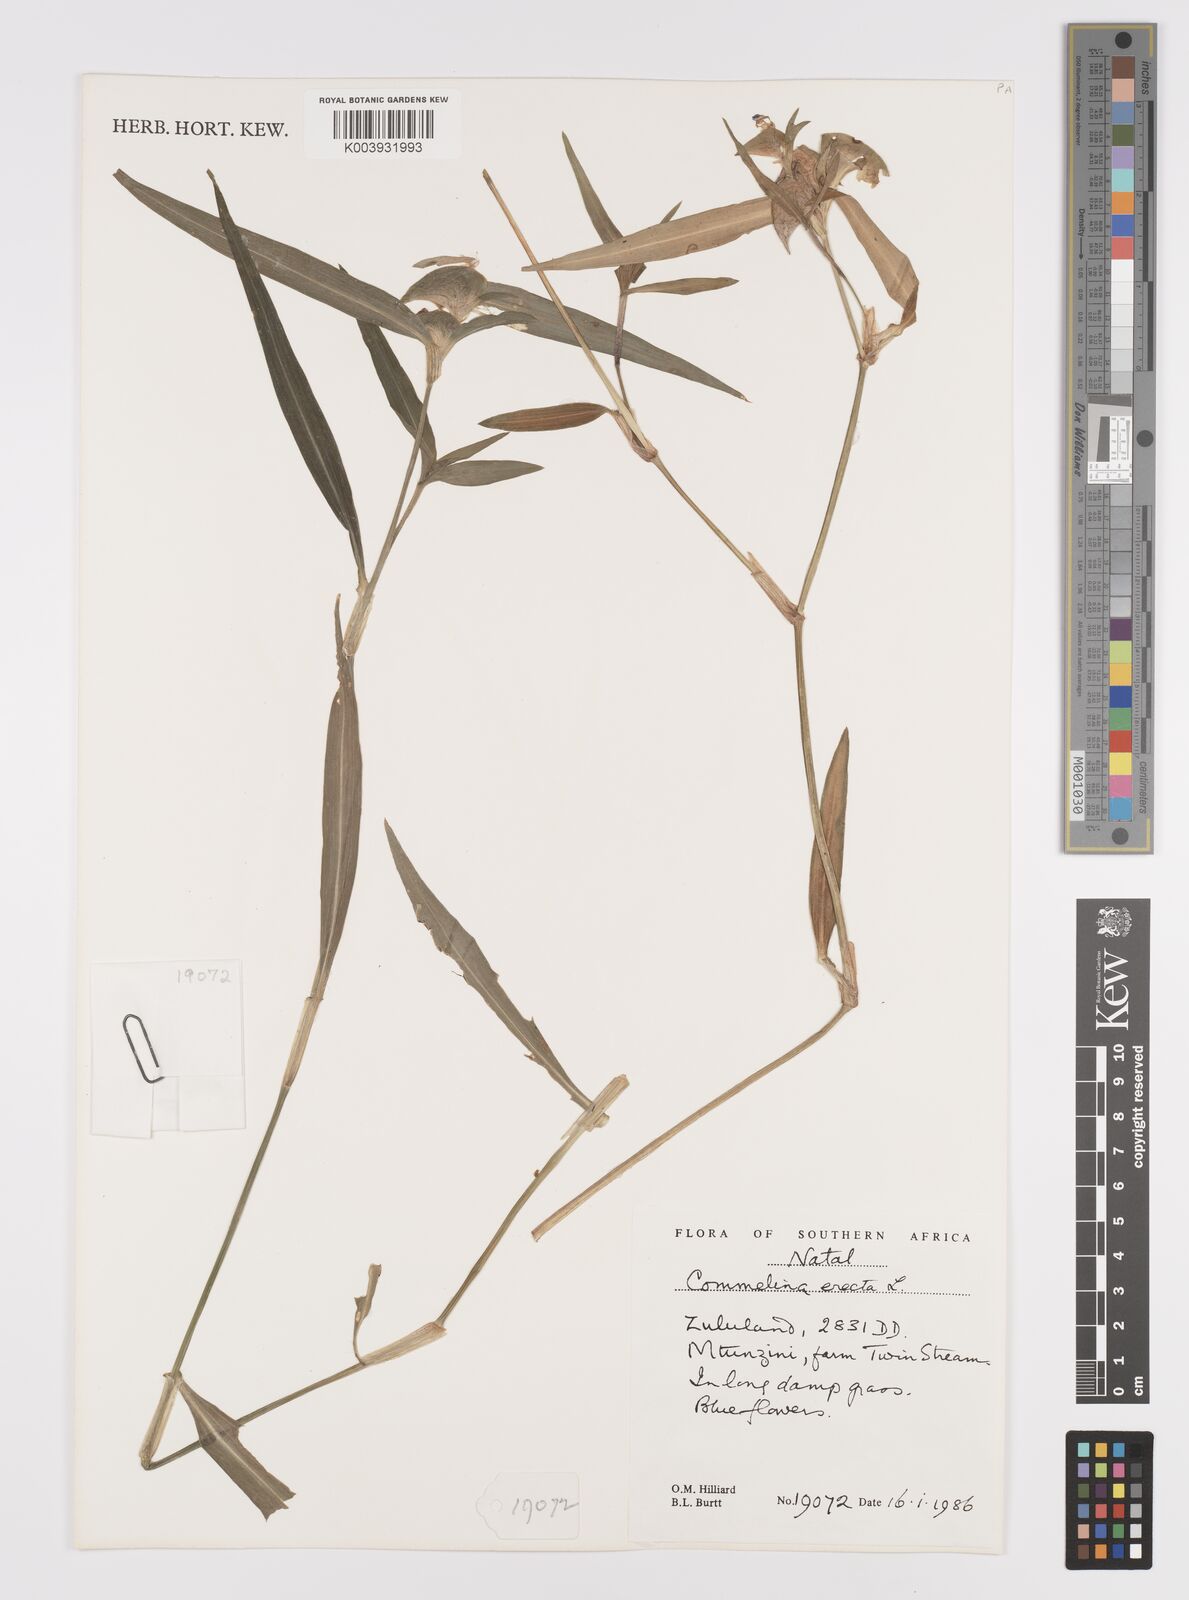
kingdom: Plantae
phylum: Tracheophyta
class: Liliopsida
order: Commelinales
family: Commelinaceae
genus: Commelina
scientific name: Commelina erecta
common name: Blousel blommetjie
